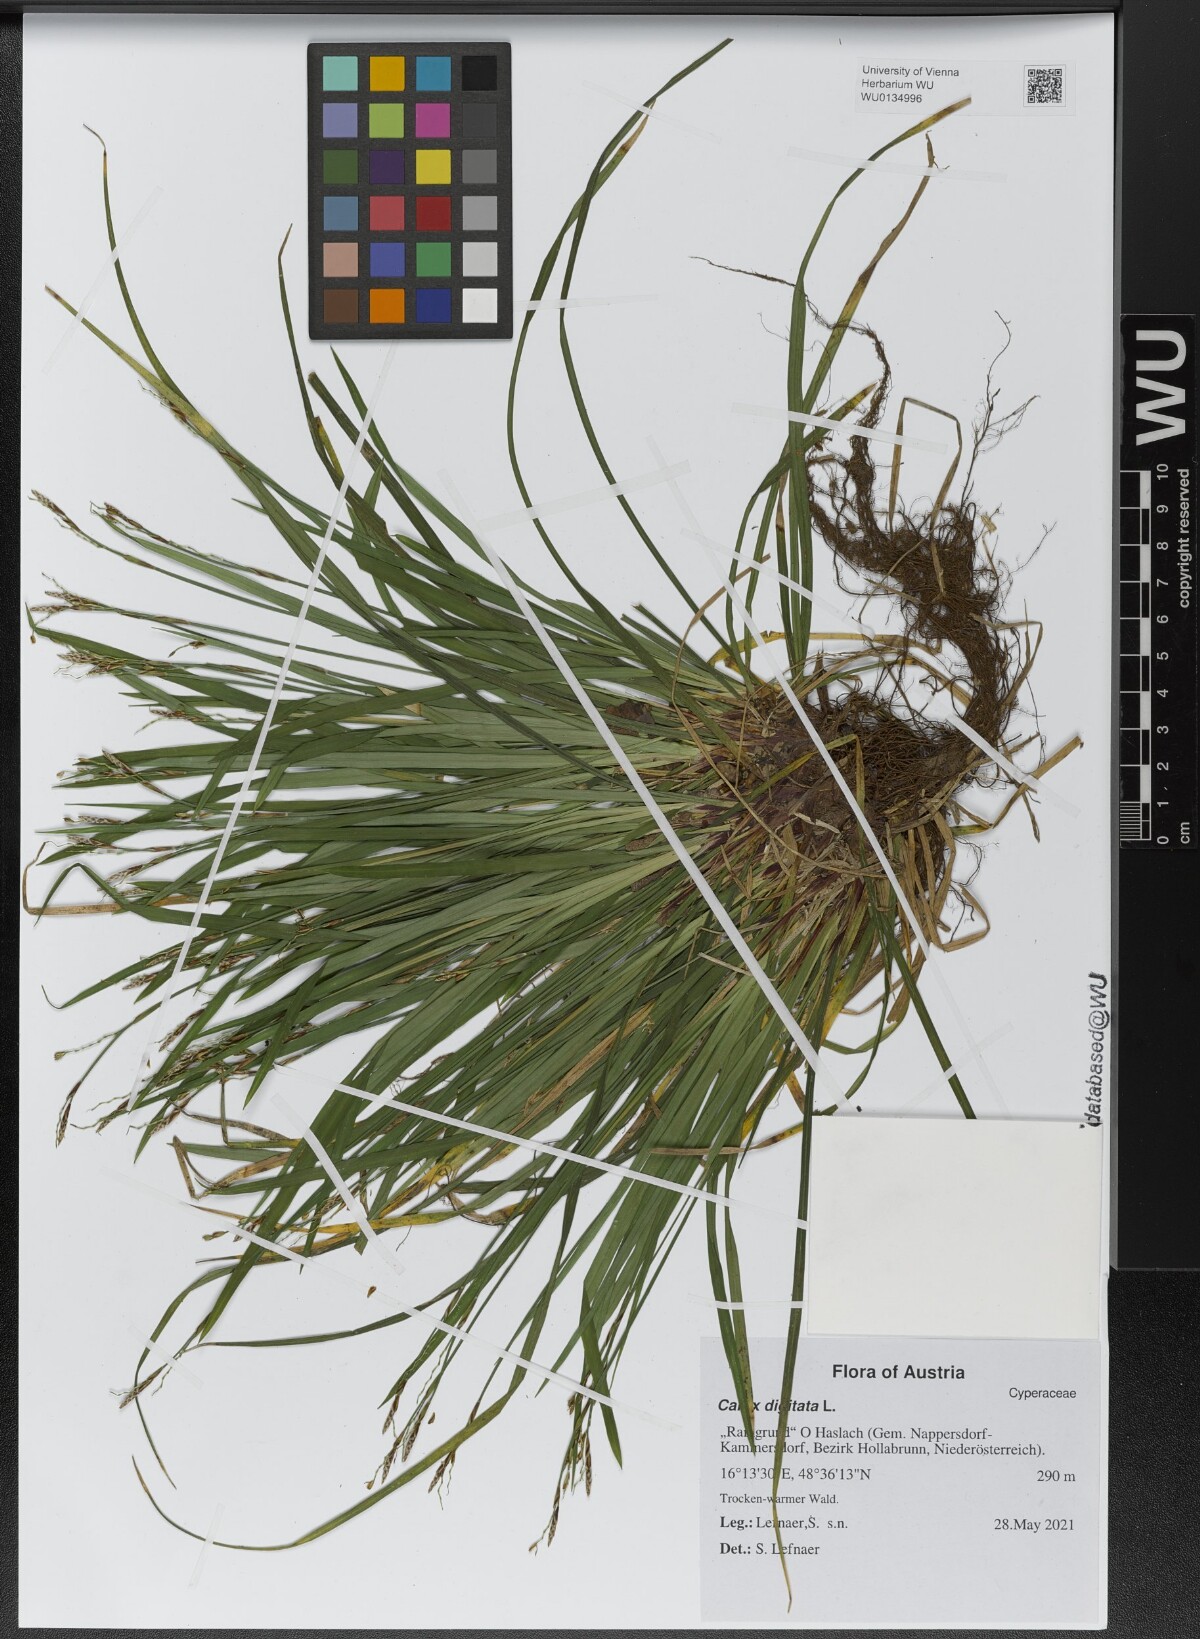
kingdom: Plantae
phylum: Tracheophyta
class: Liliopsida
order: Poales
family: Cyperaceae
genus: Carex
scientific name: Carex digitata
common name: Fingered sedge
